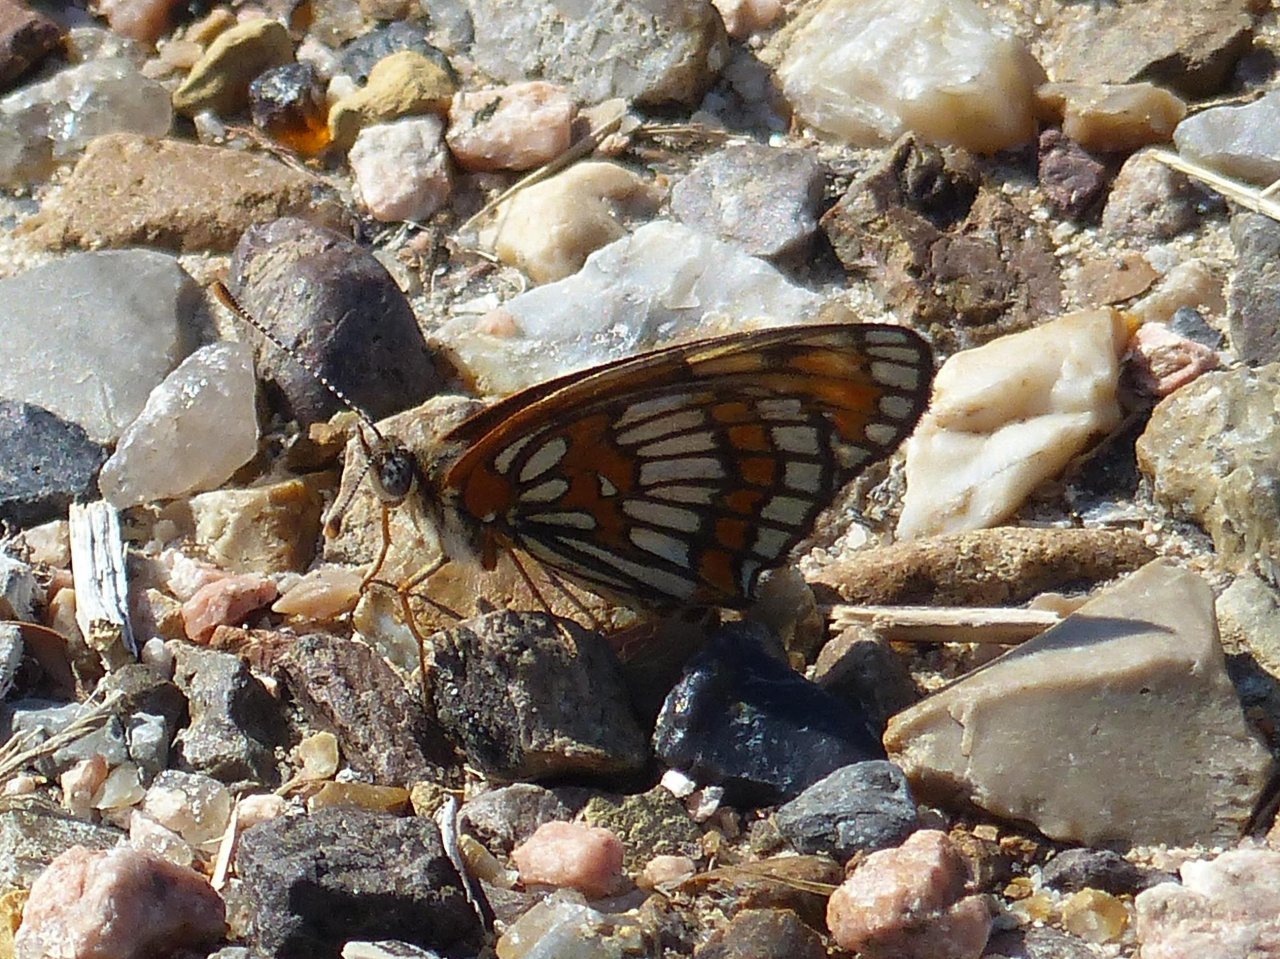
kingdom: Animalia
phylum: Arthropoda
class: Insecta
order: Lepidoptera
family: Nymphalidae
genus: Thessalia
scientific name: Thessalia theona
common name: Theona Checkerspot
